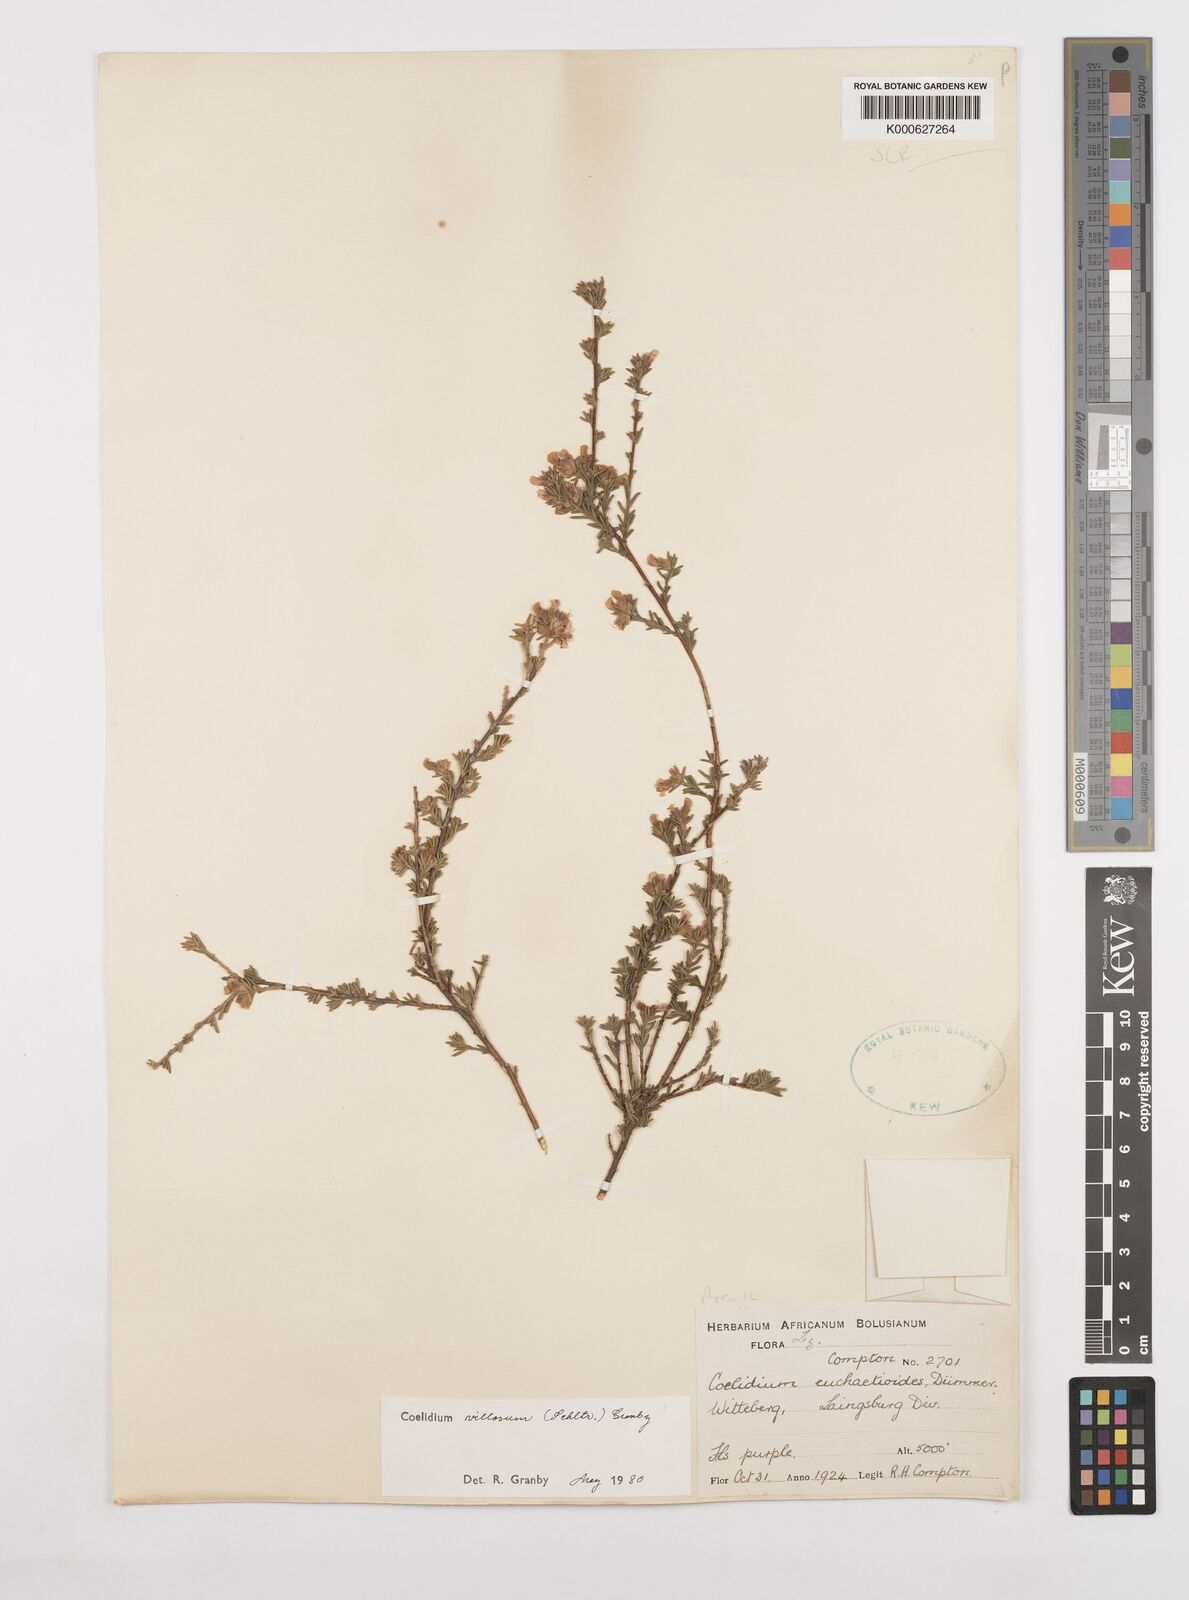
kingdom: Plantae
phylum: Tracheophyta
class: Magnoliopsida
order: Fabales
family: Fabaceae
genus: Amphithalea
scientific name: Amphithalea villosa
